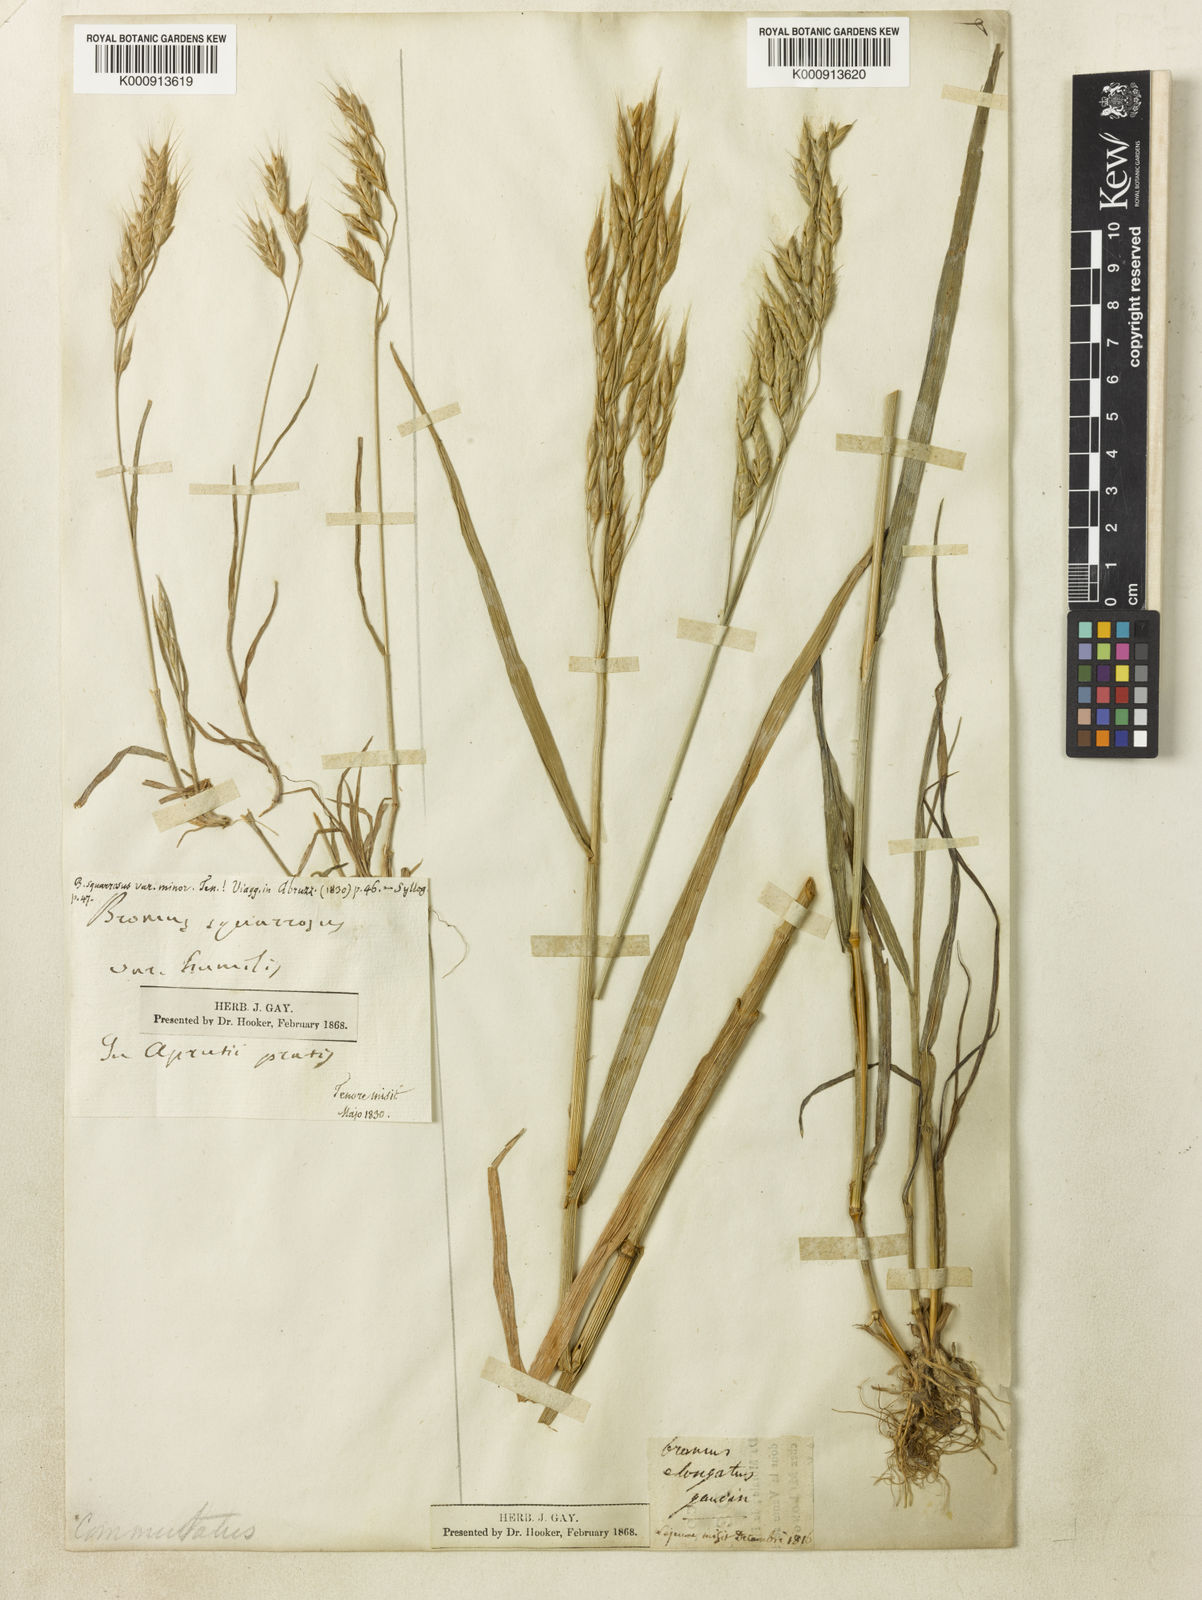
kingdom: Plantae
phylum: Tracheophyta
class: Liliopsida
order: Poales
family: Poaceae
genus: Bromus
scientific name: Bromus commutatus
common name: Meadow brome
